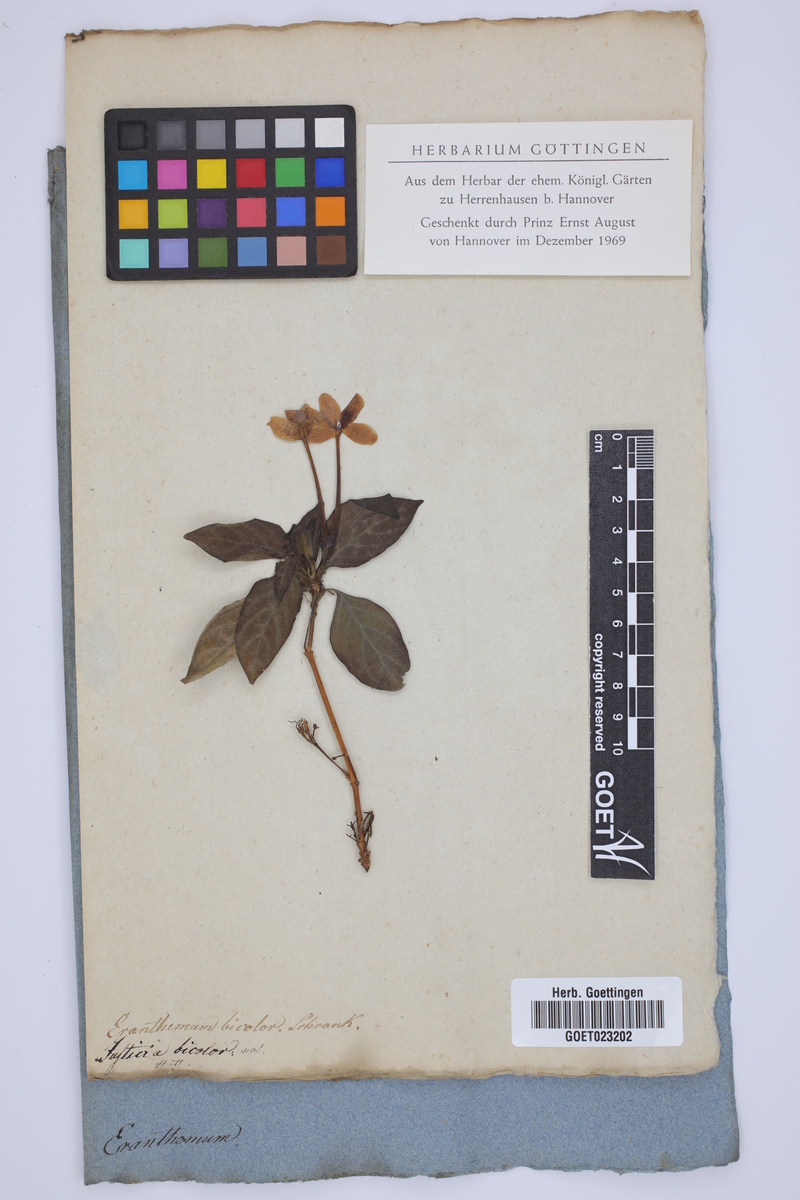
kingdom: Plantae
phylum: Tracheophyta
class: Magnoliopsida
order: Lamiales
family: Acanthaceae
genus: Eranthemum
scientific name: Eranthemum pulchellum
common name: Blue-sage
